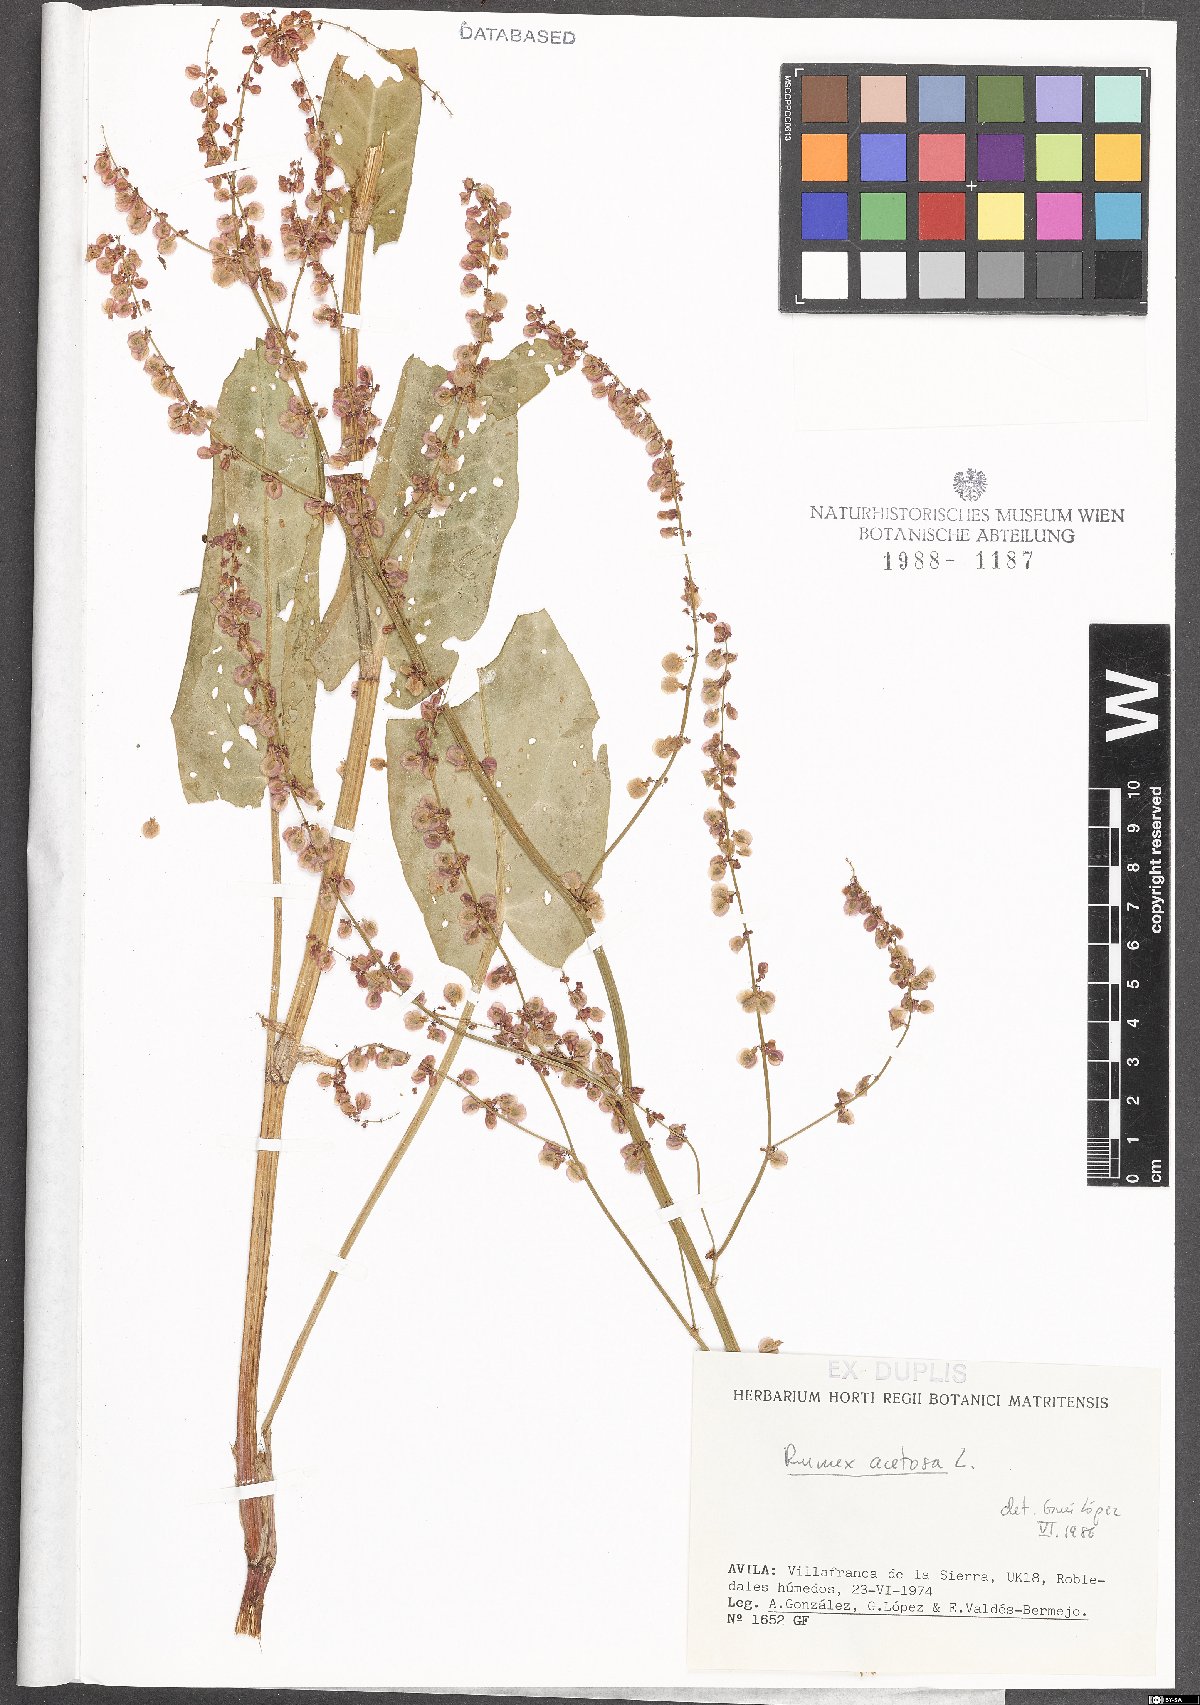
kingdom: Plantae
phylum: Tracheophyta
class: Magnoliopsida
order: Caryophyllales
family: Polygonaceae
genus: Rumex
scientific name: Rumex acetosa
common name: Garden sorrel
